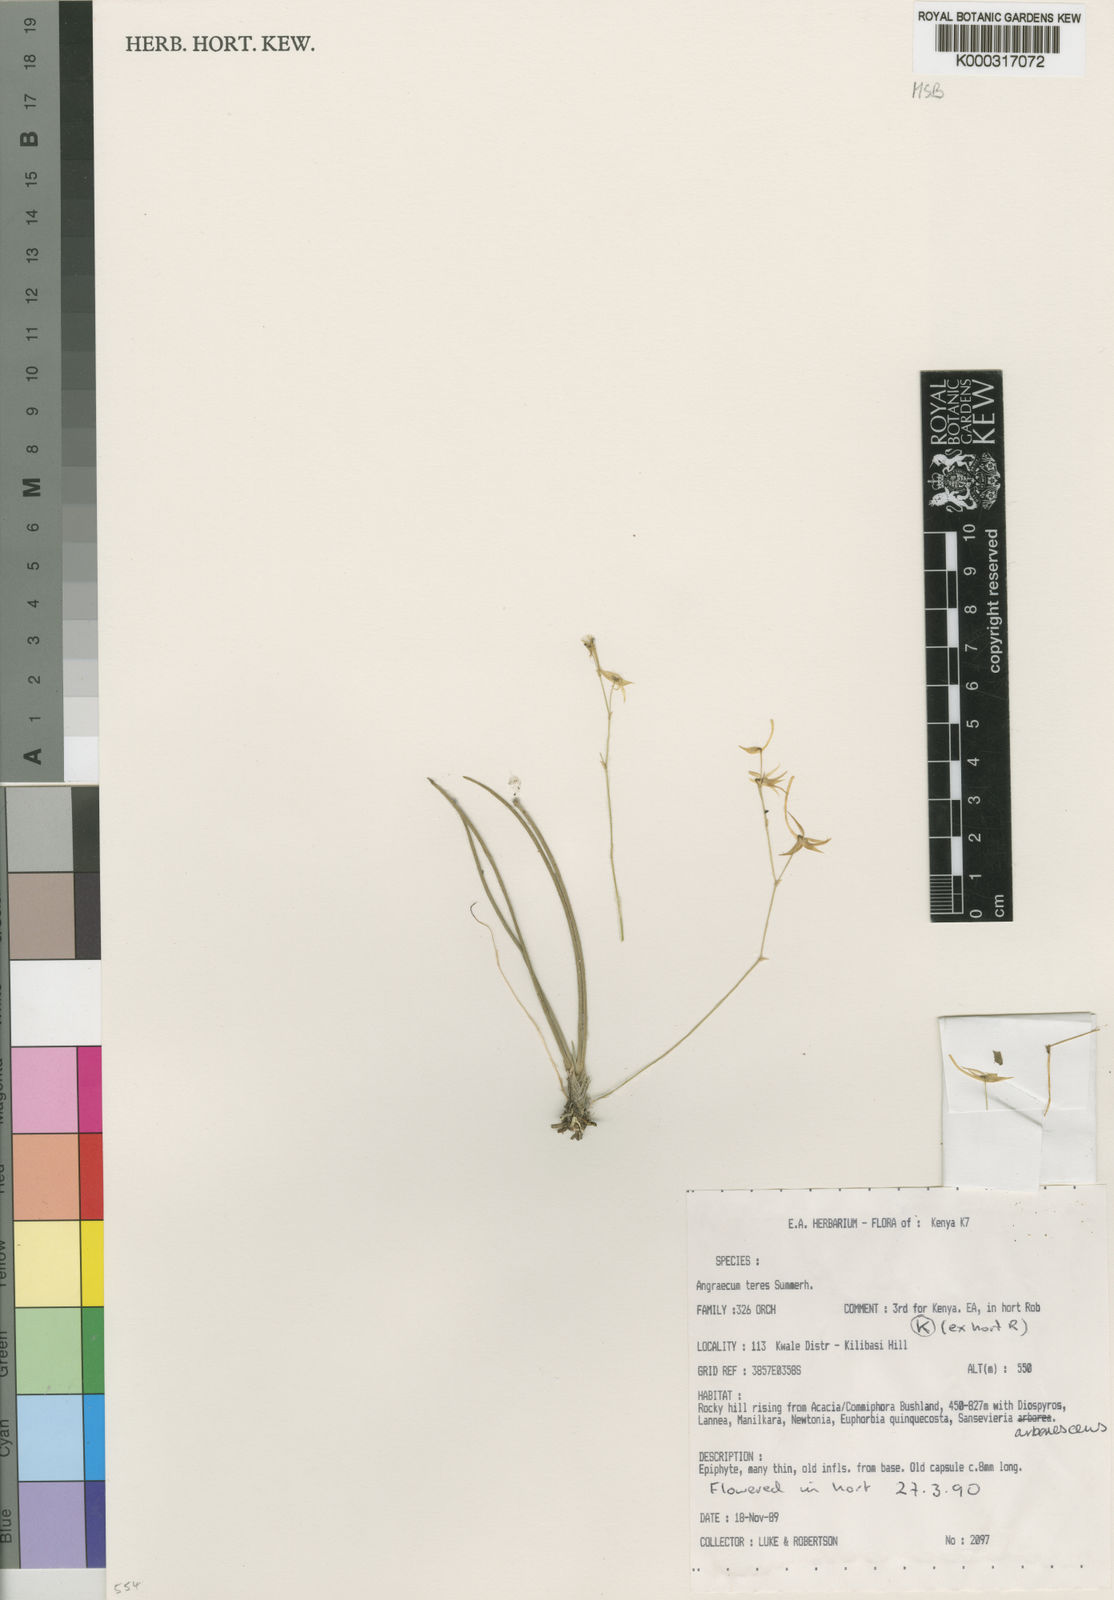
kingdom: Plantae
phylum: Tracheophyta
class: Liliopsida
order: Asparagales
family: Orchidaceae
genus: Angraecum
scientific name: Angraecum teres
